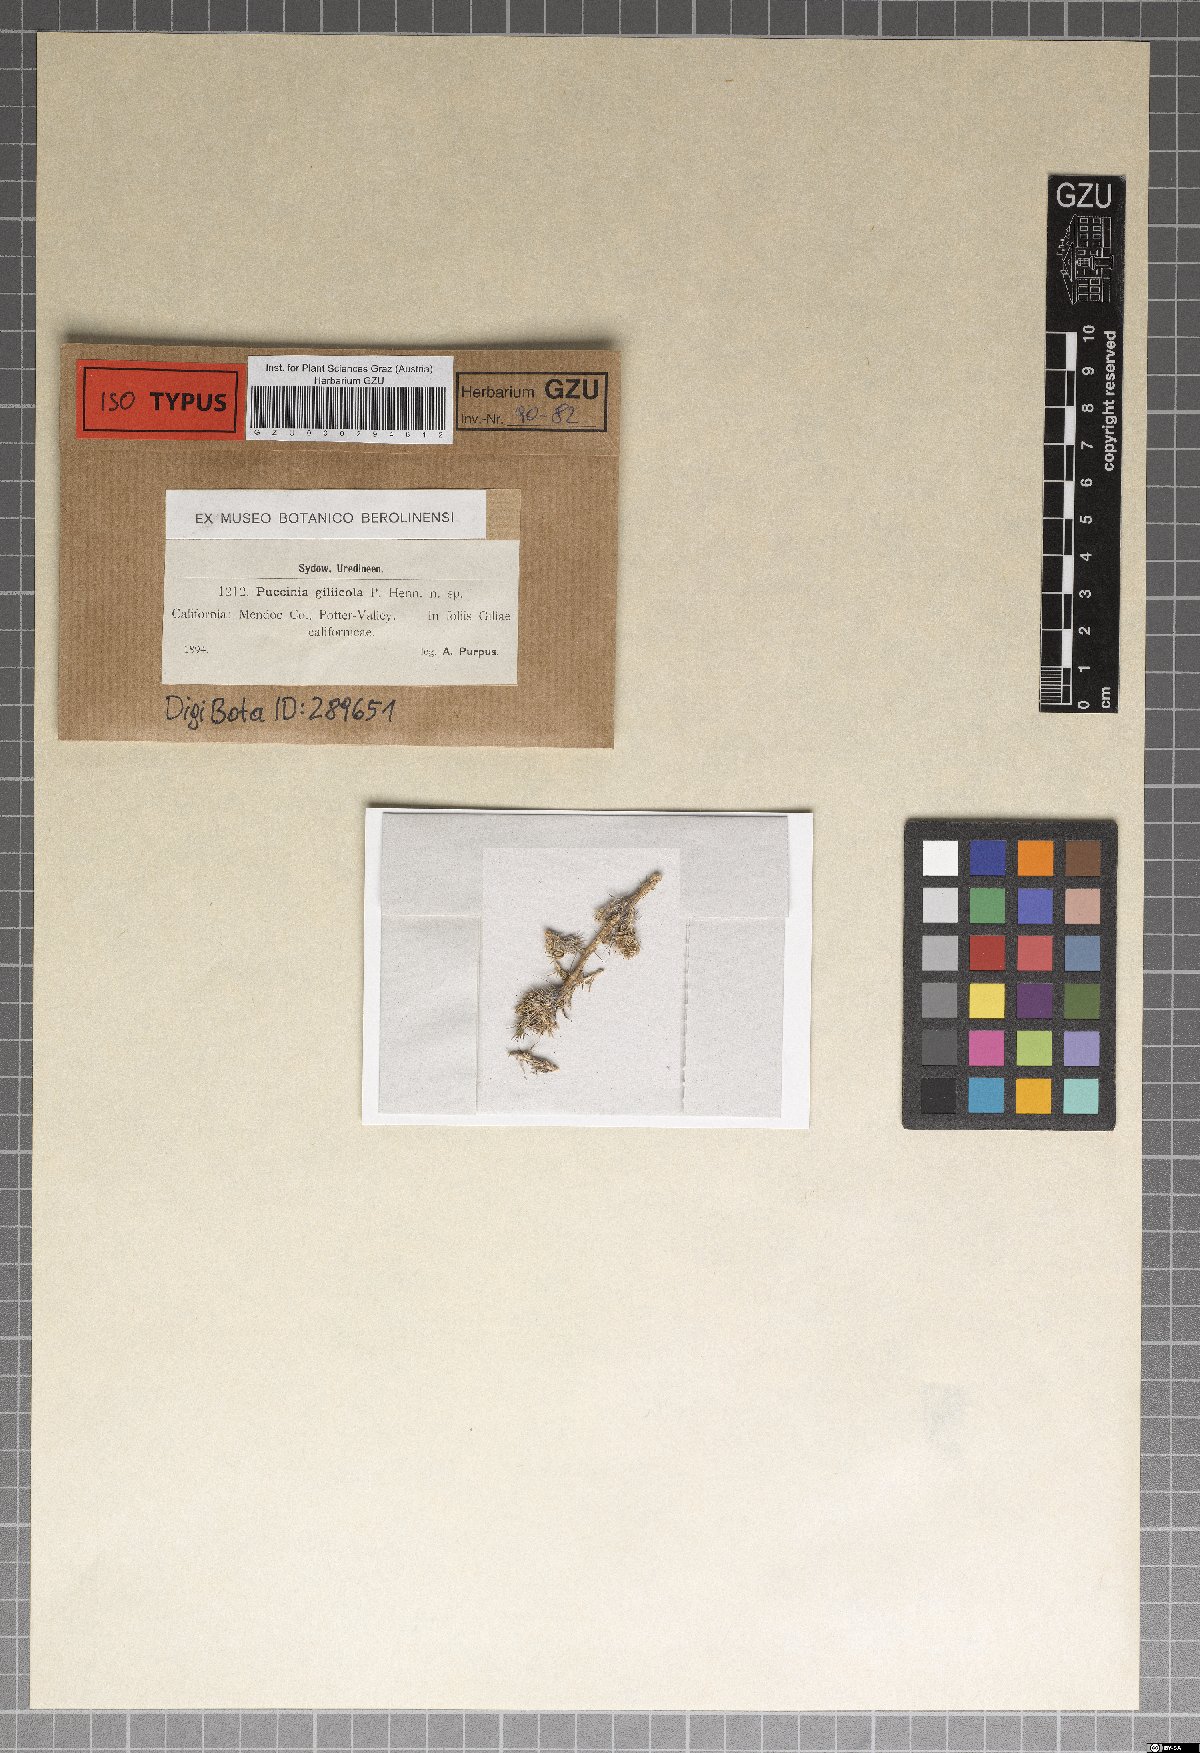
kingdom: Fungi
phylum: Basidiomycota
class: Pucciniomycetes
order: Pucciniales
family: Pucciniaceae
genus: Puccinia
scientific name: Puccinia giliicola
